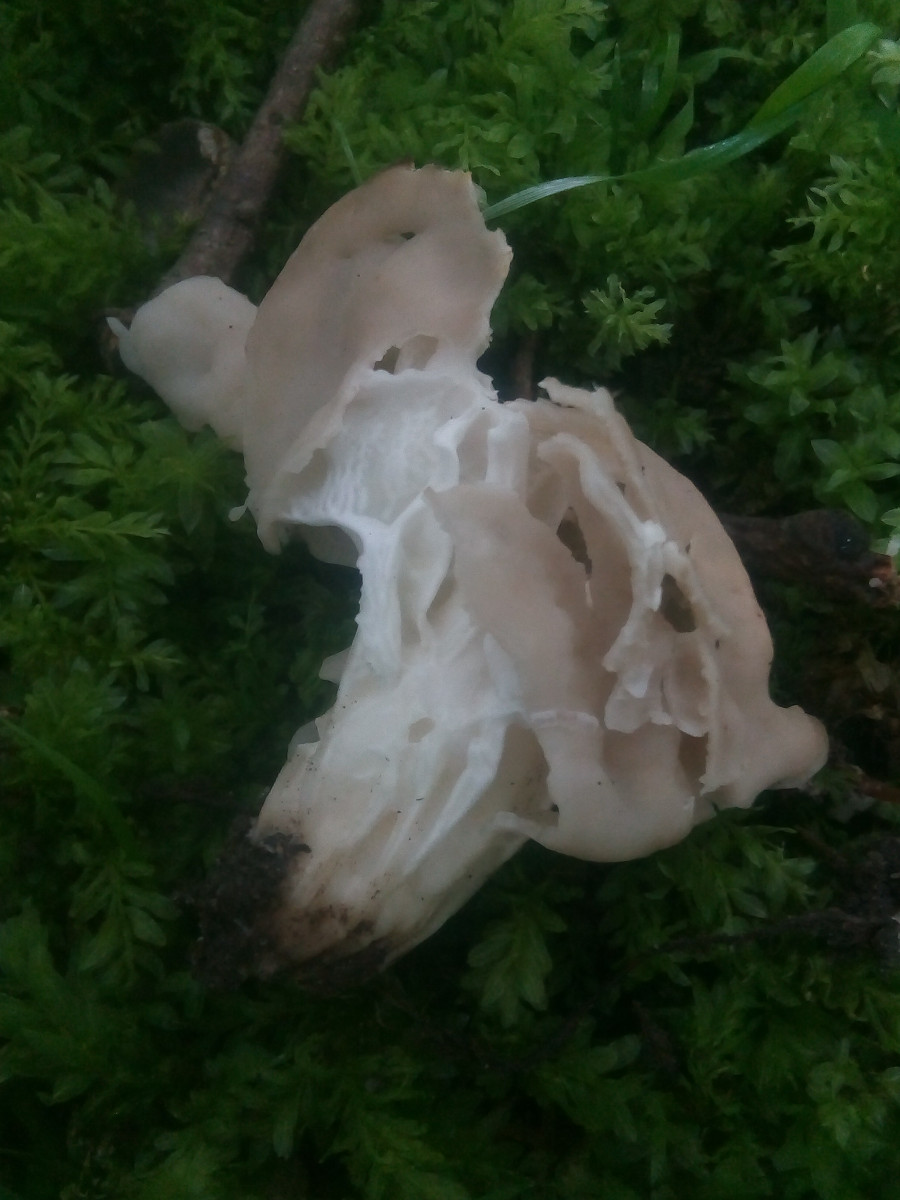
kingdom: Fungi
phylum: Ascomycota
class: Pezizomycetes
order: Pezizales
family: Helvellaceae
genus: Helvella
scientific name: Helvella crispa
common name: kruset foldhat
